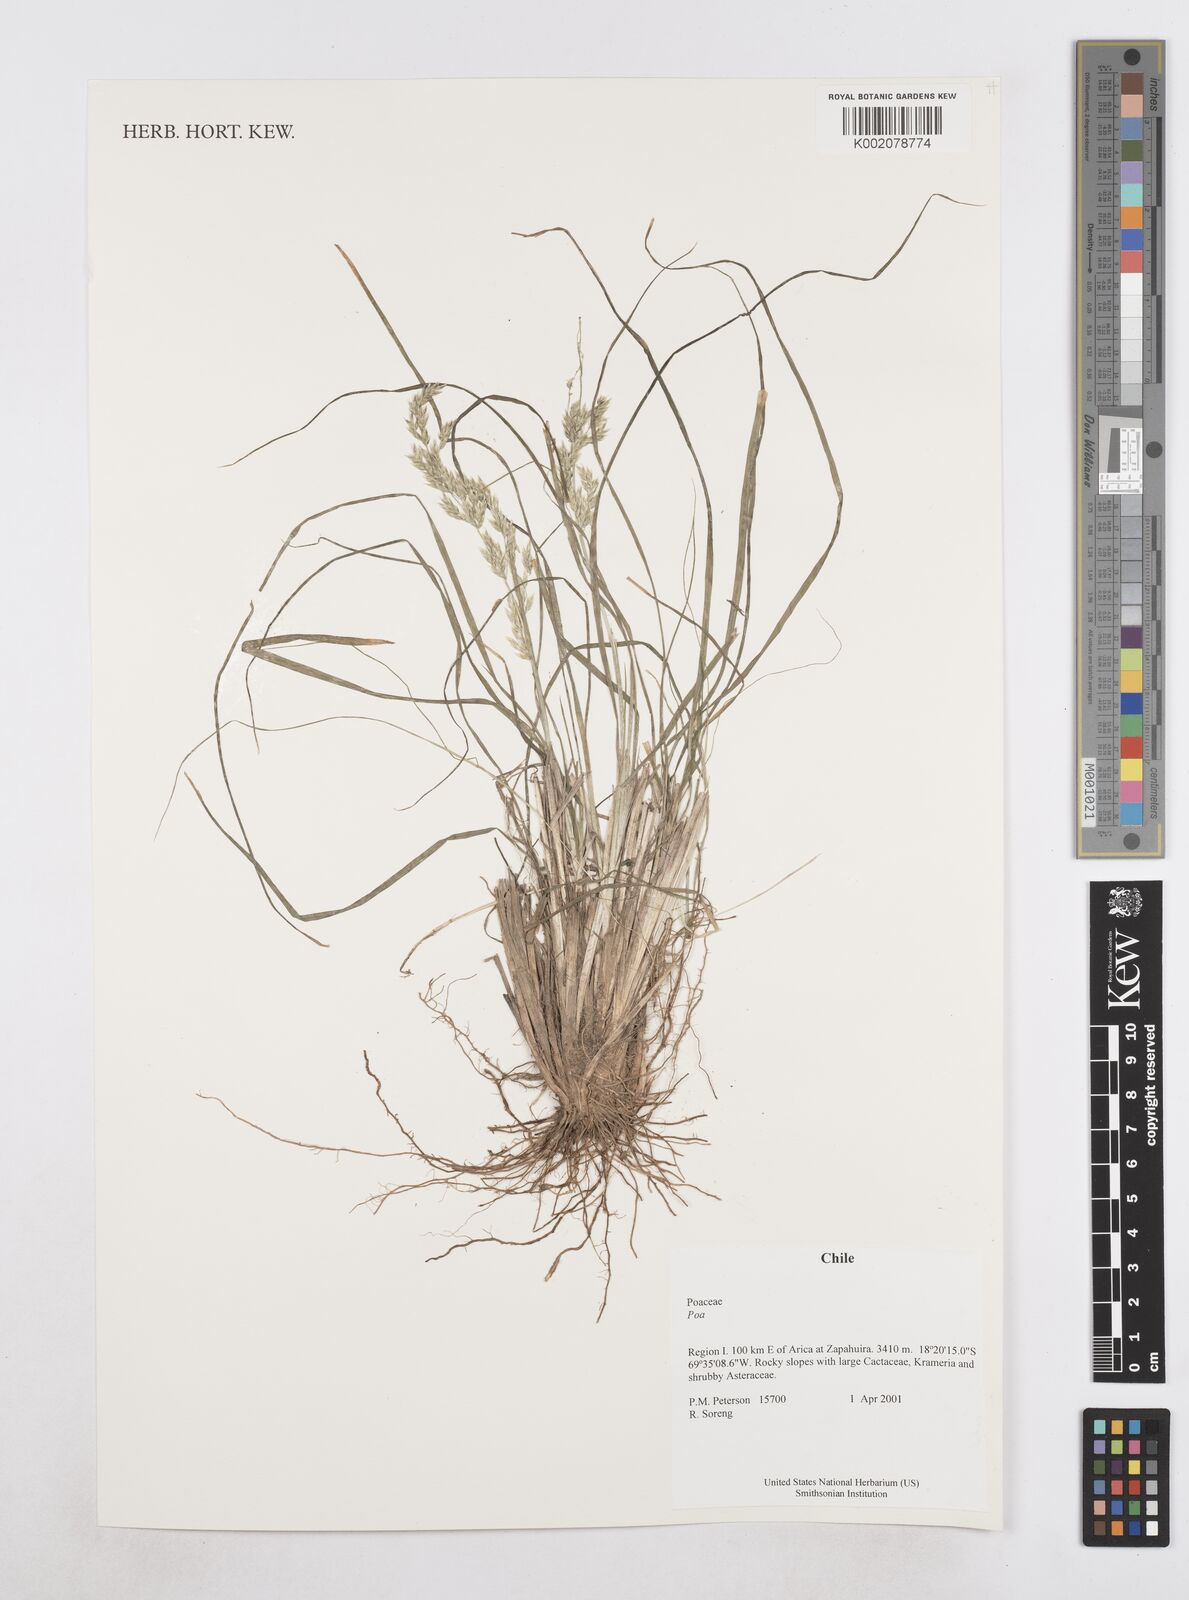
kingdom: Plantae
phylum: Tracheophyta
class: Liliopsida
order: Poales
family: Poaceae
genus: Poa
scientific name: Poa
